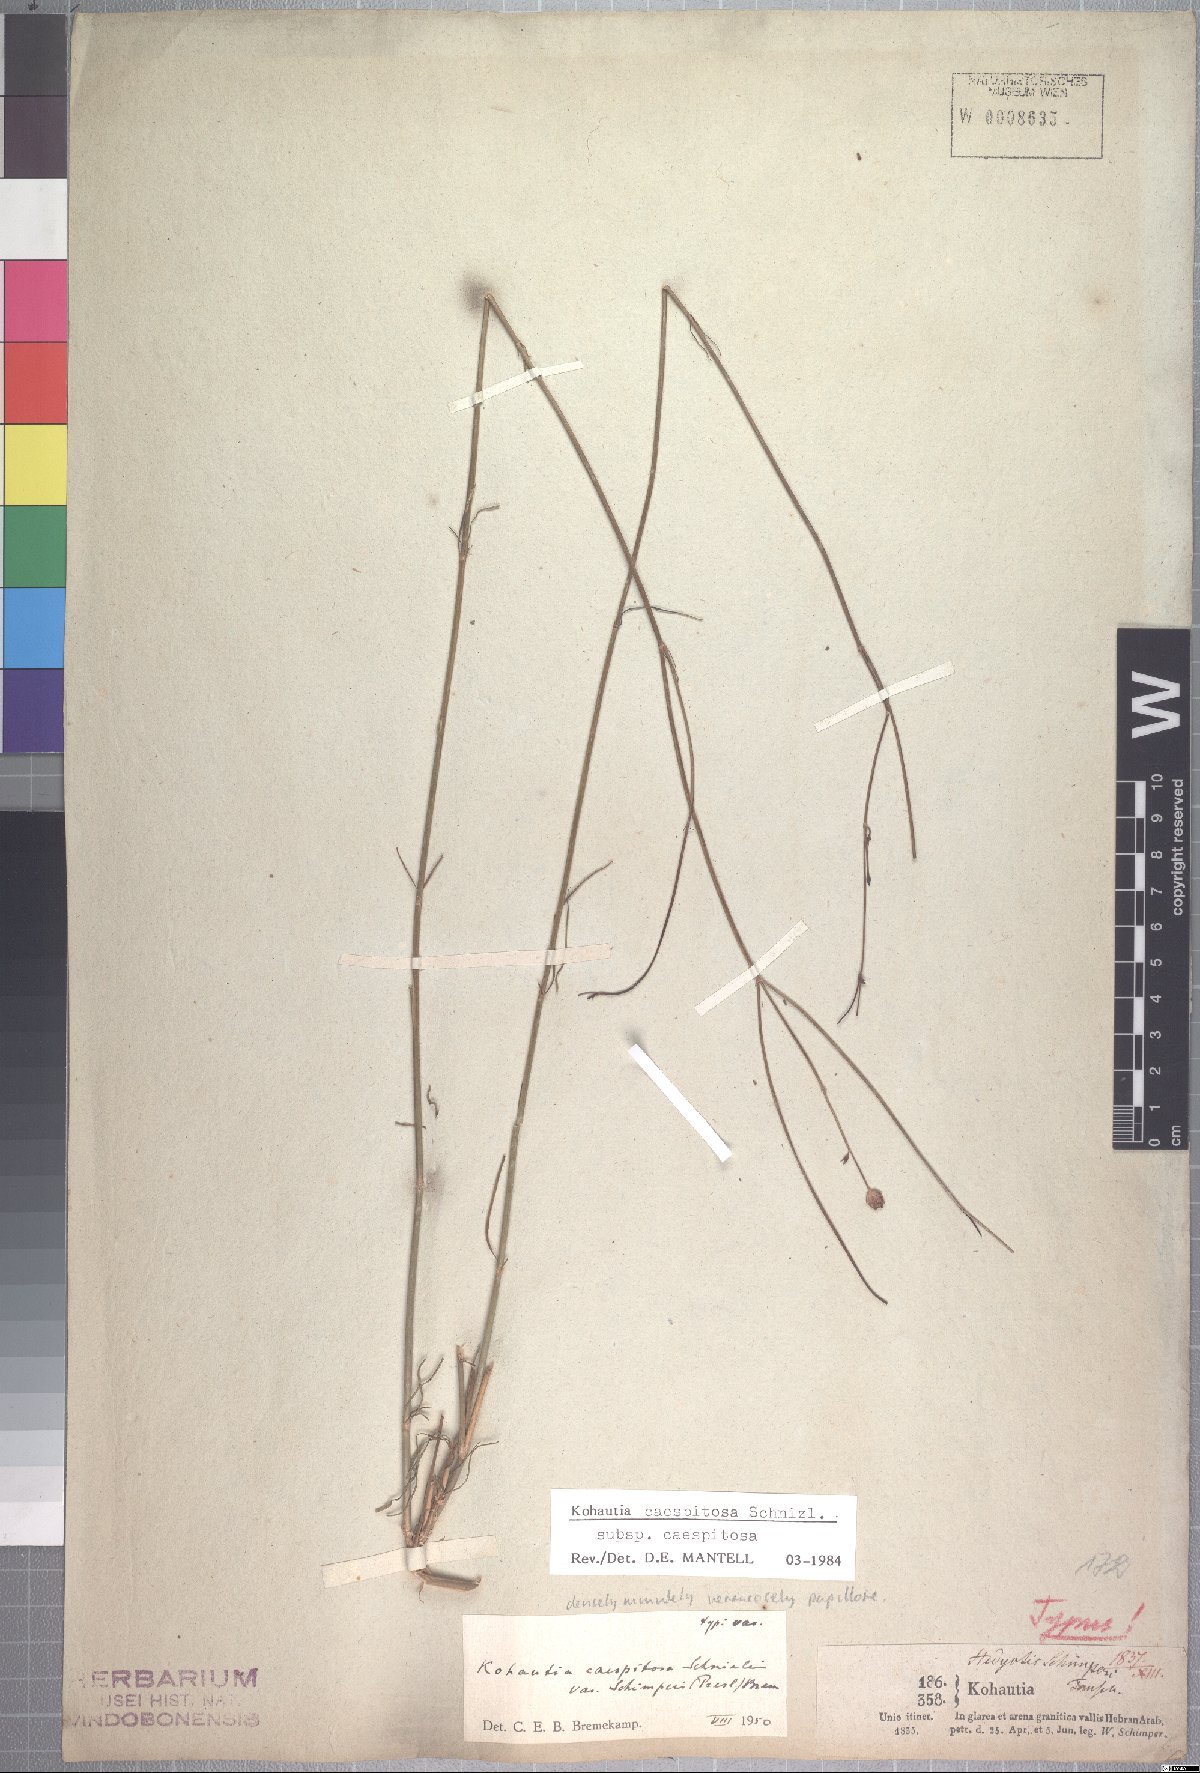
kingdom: Plantae
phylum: Tracheophyta
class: Magnoliopsida
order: Gentianales
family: Rubiaceae
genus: Kohautia
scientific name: Kohautia caespitosa
